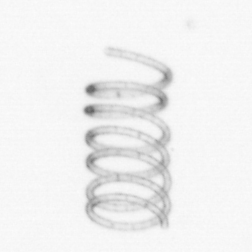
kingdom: Chromista
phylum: Ochrophyta
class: Bacillariophyceae
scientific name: Bacillariophyceae
